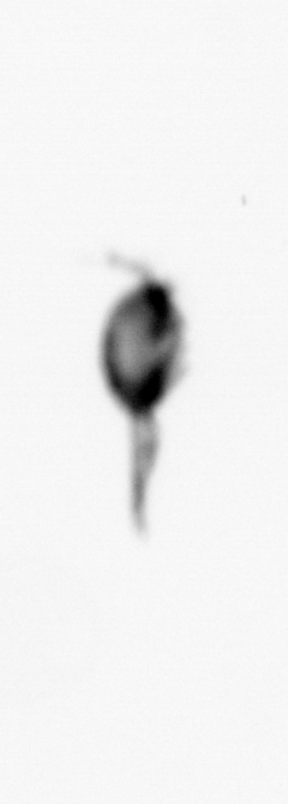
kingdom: Animalia
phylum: Arthropoda
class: Copepoda
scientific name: Copepoda
